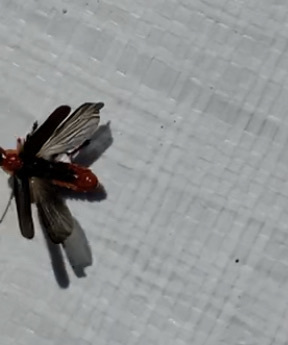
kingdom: Animalia
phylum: Arthropoda
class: Insecta
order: Coleoptera
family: Cantharidae
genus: Cantharis
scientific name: Cantharis
